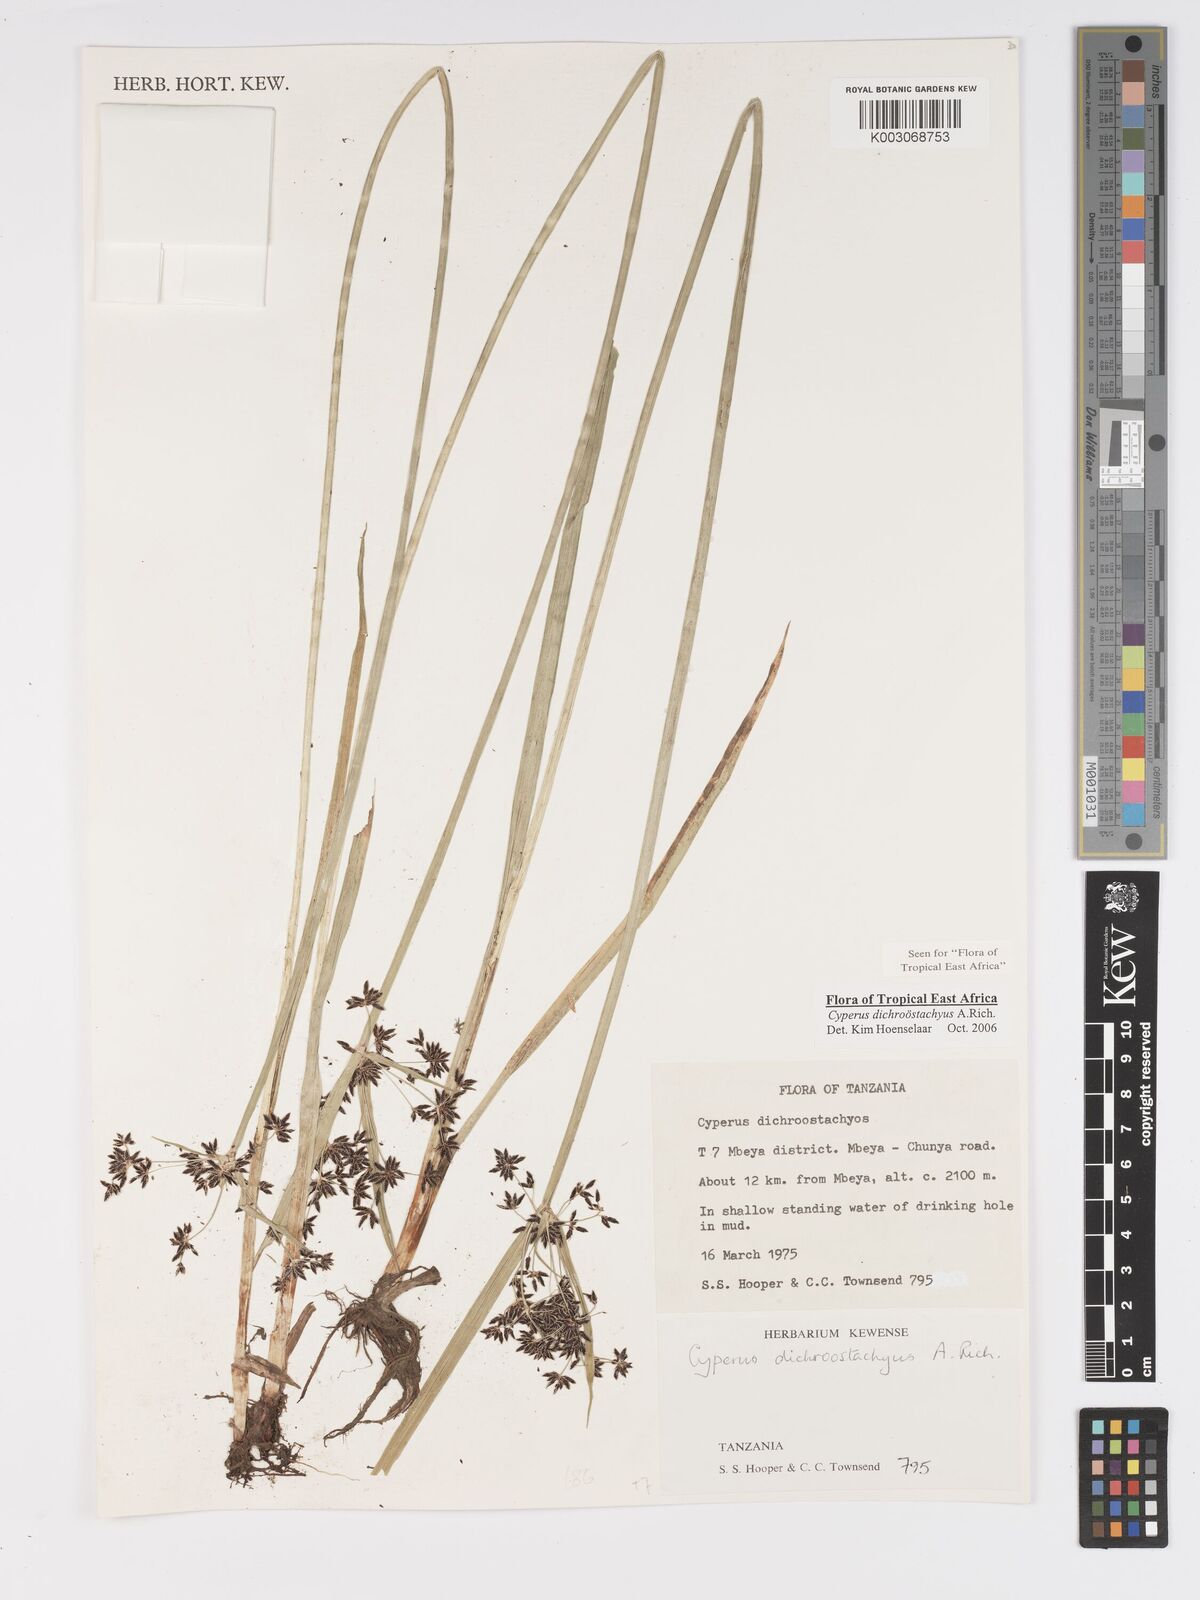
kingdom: Plantae
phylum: Tracheophyta
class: Liliopsida
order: Poales
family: Cyperaceae
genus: Cyperus
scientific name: Cyperus dichrostachyus
